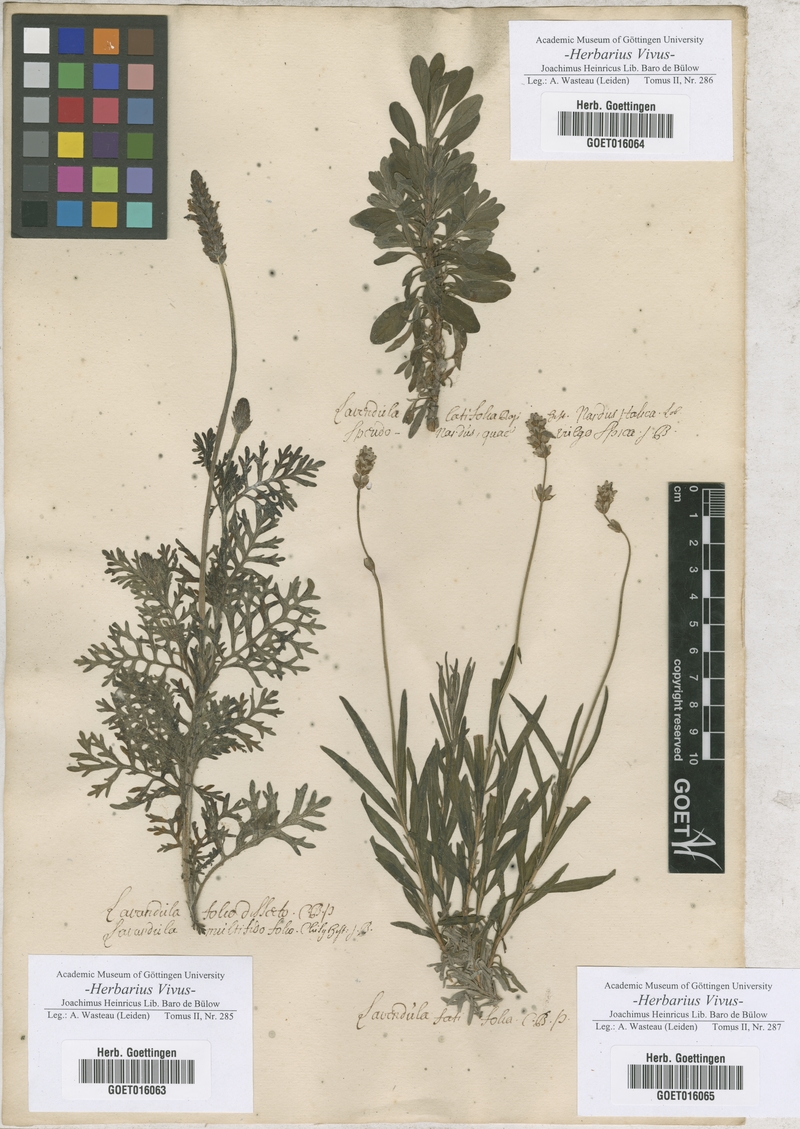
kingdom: Plantae
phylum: Tracheophyta
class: Magnoliopsida
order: Lamiales
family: Lamiaceae
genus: Lavandula
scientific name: Lavandula multifida
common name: Fern-leaf lavender
